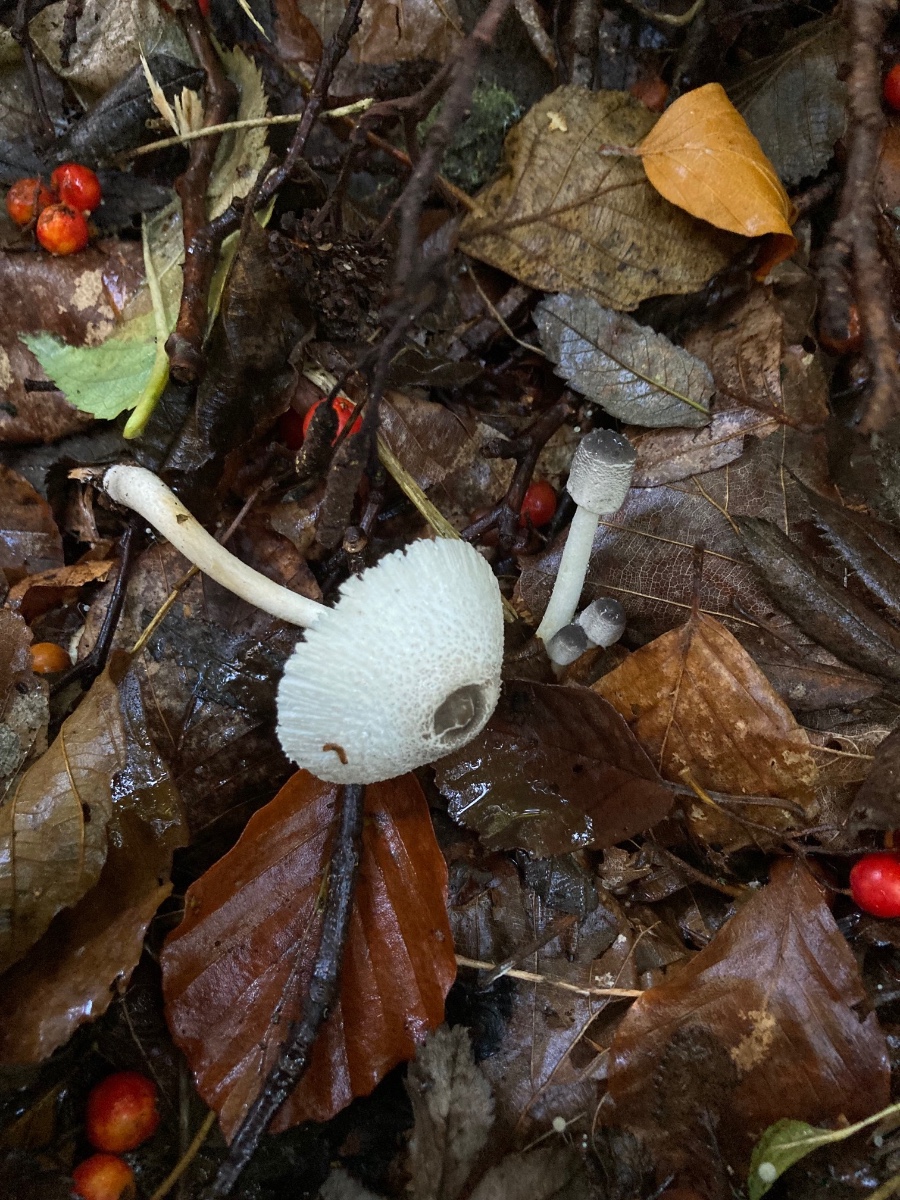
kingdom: Fungi
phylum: Basidiomycota
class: Agaricomycetes
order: Agaricales
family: Agaricaceae
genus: Leucocoprinus
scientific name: Leucocoprinus brebissonii
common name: gråsort silkehat
